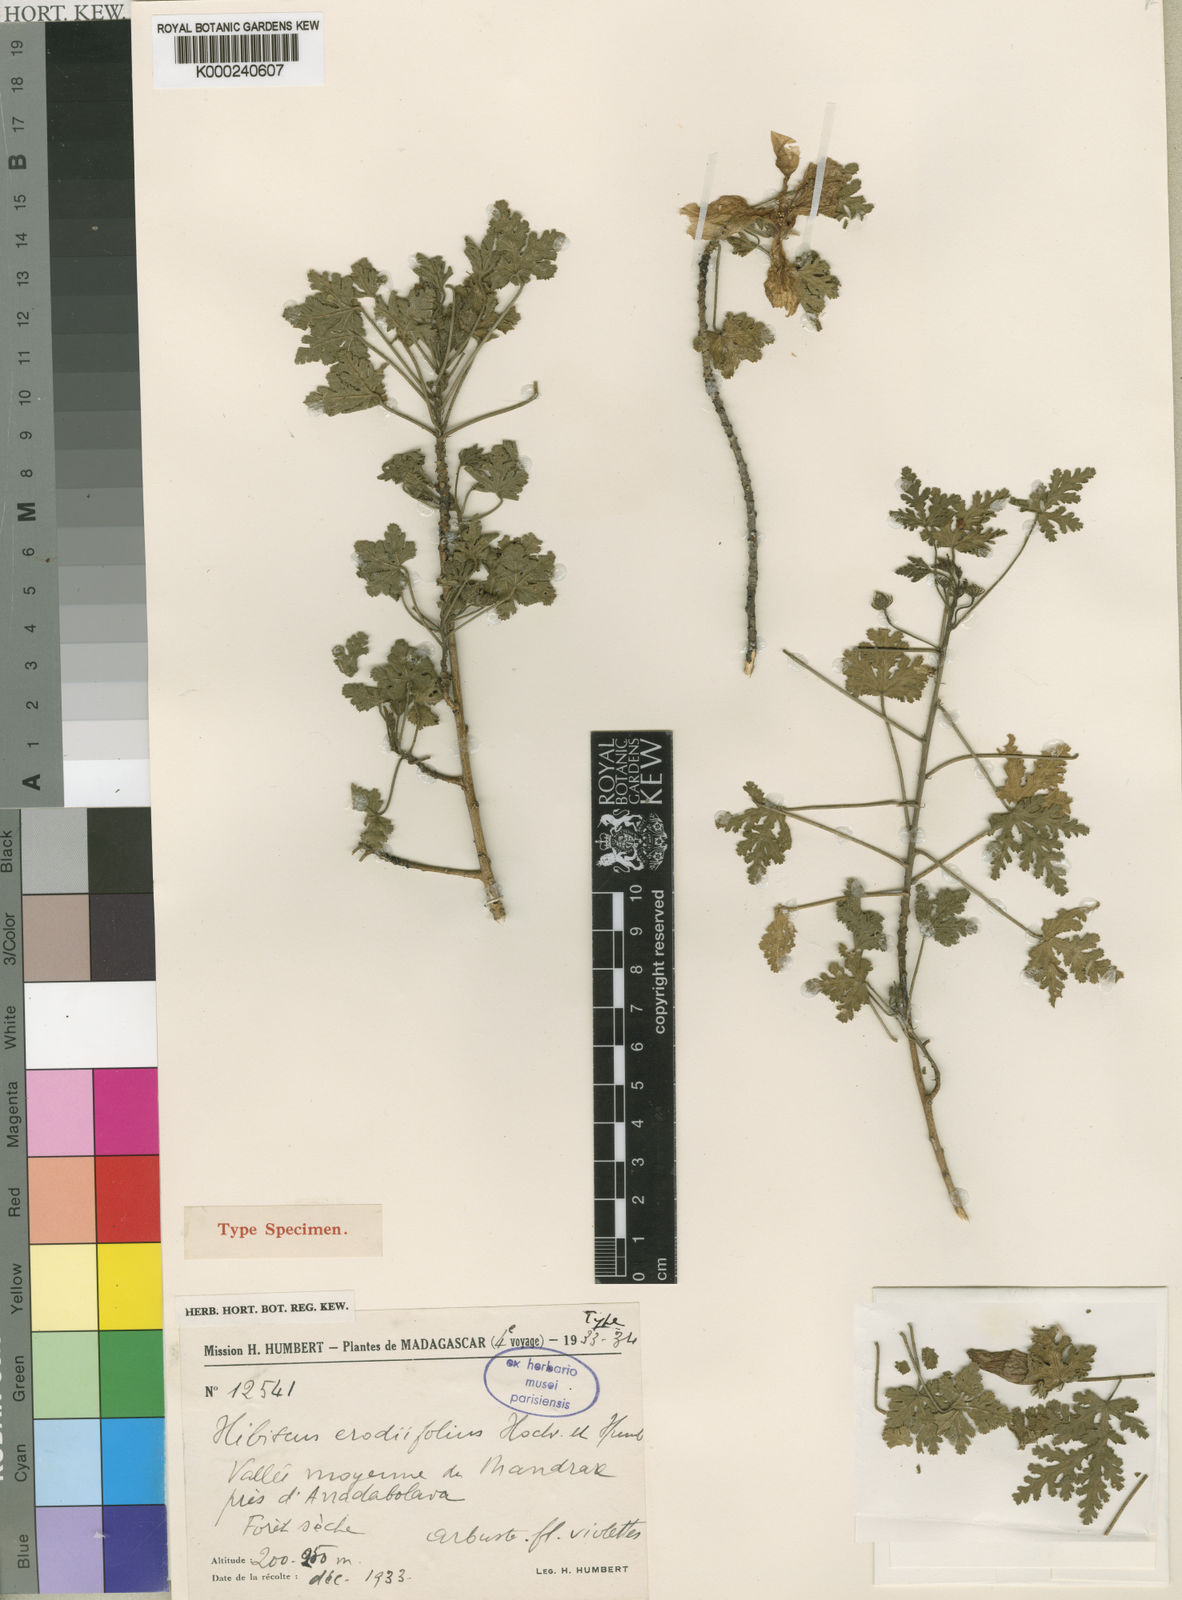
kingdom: Plantae
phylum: Tracheophyta
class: Magnoliopsida
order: Malvales
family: Malvaceae
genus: Hibiscus
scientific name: Hibiscus erodiifolius
